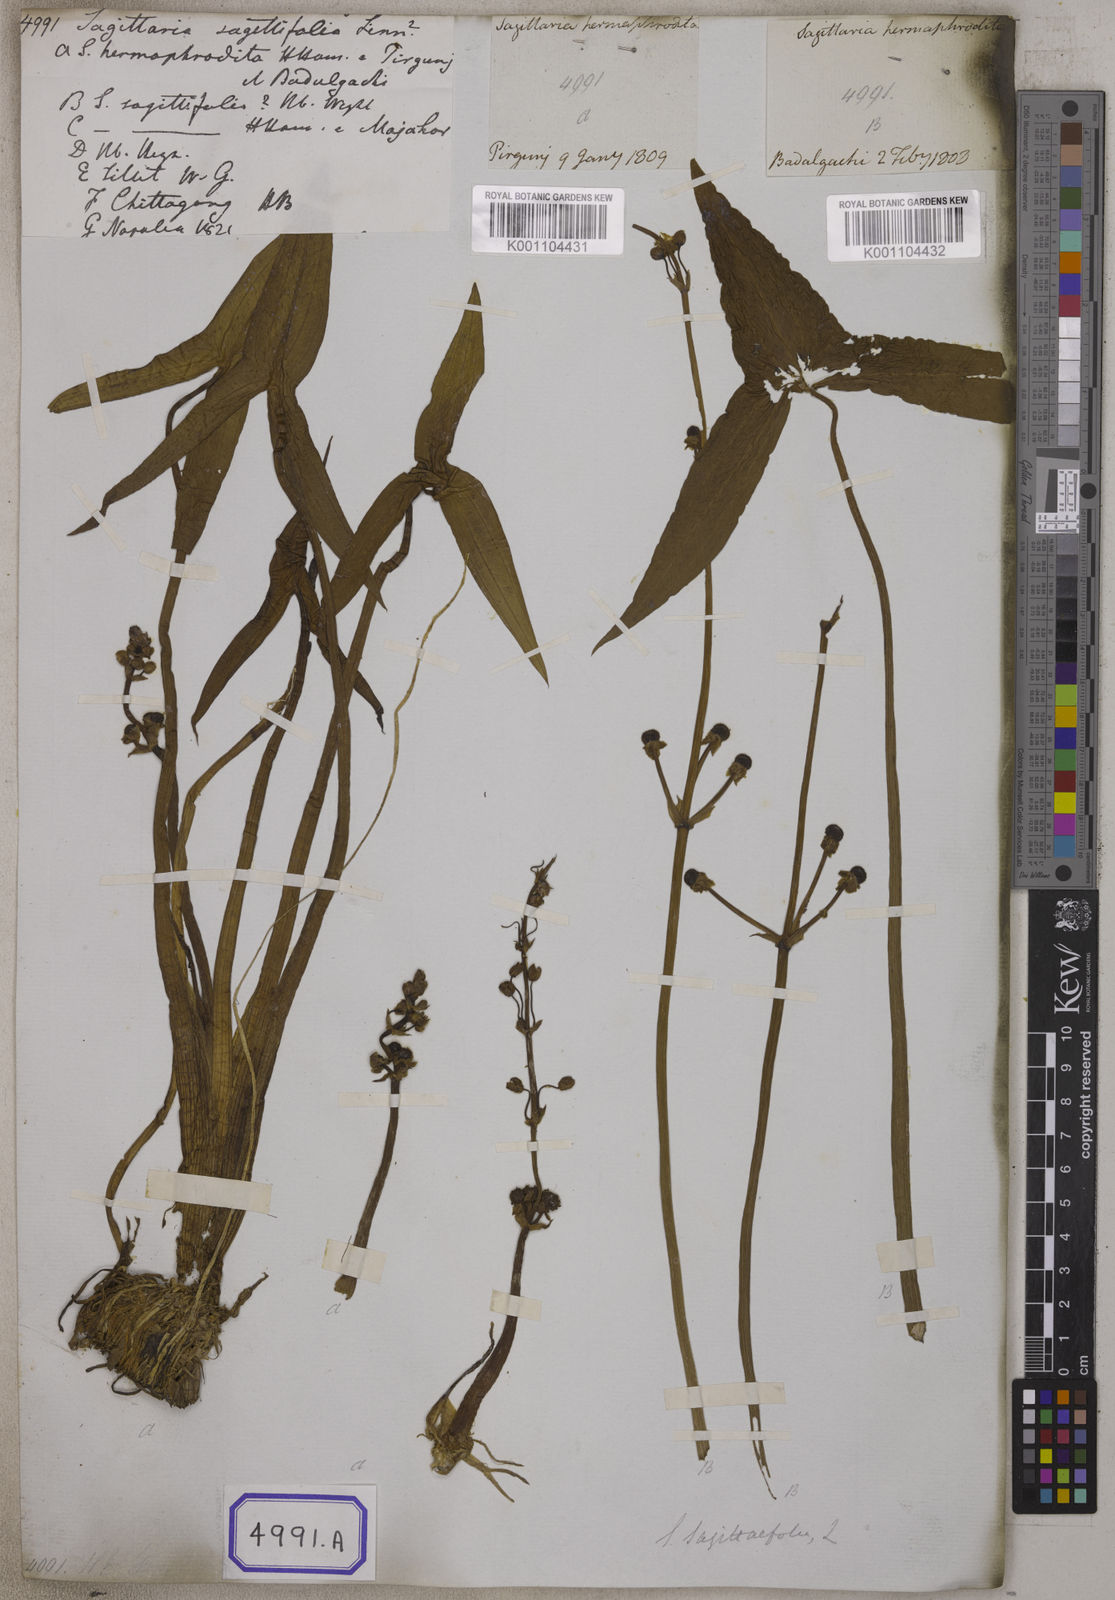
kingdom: Plantae
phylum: Tracheophyta
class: Liliopsida
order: Alismatales
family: Alismataceae
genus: Sagittaria
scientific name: Sagittaria sagittifolia
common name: Arrowhead
